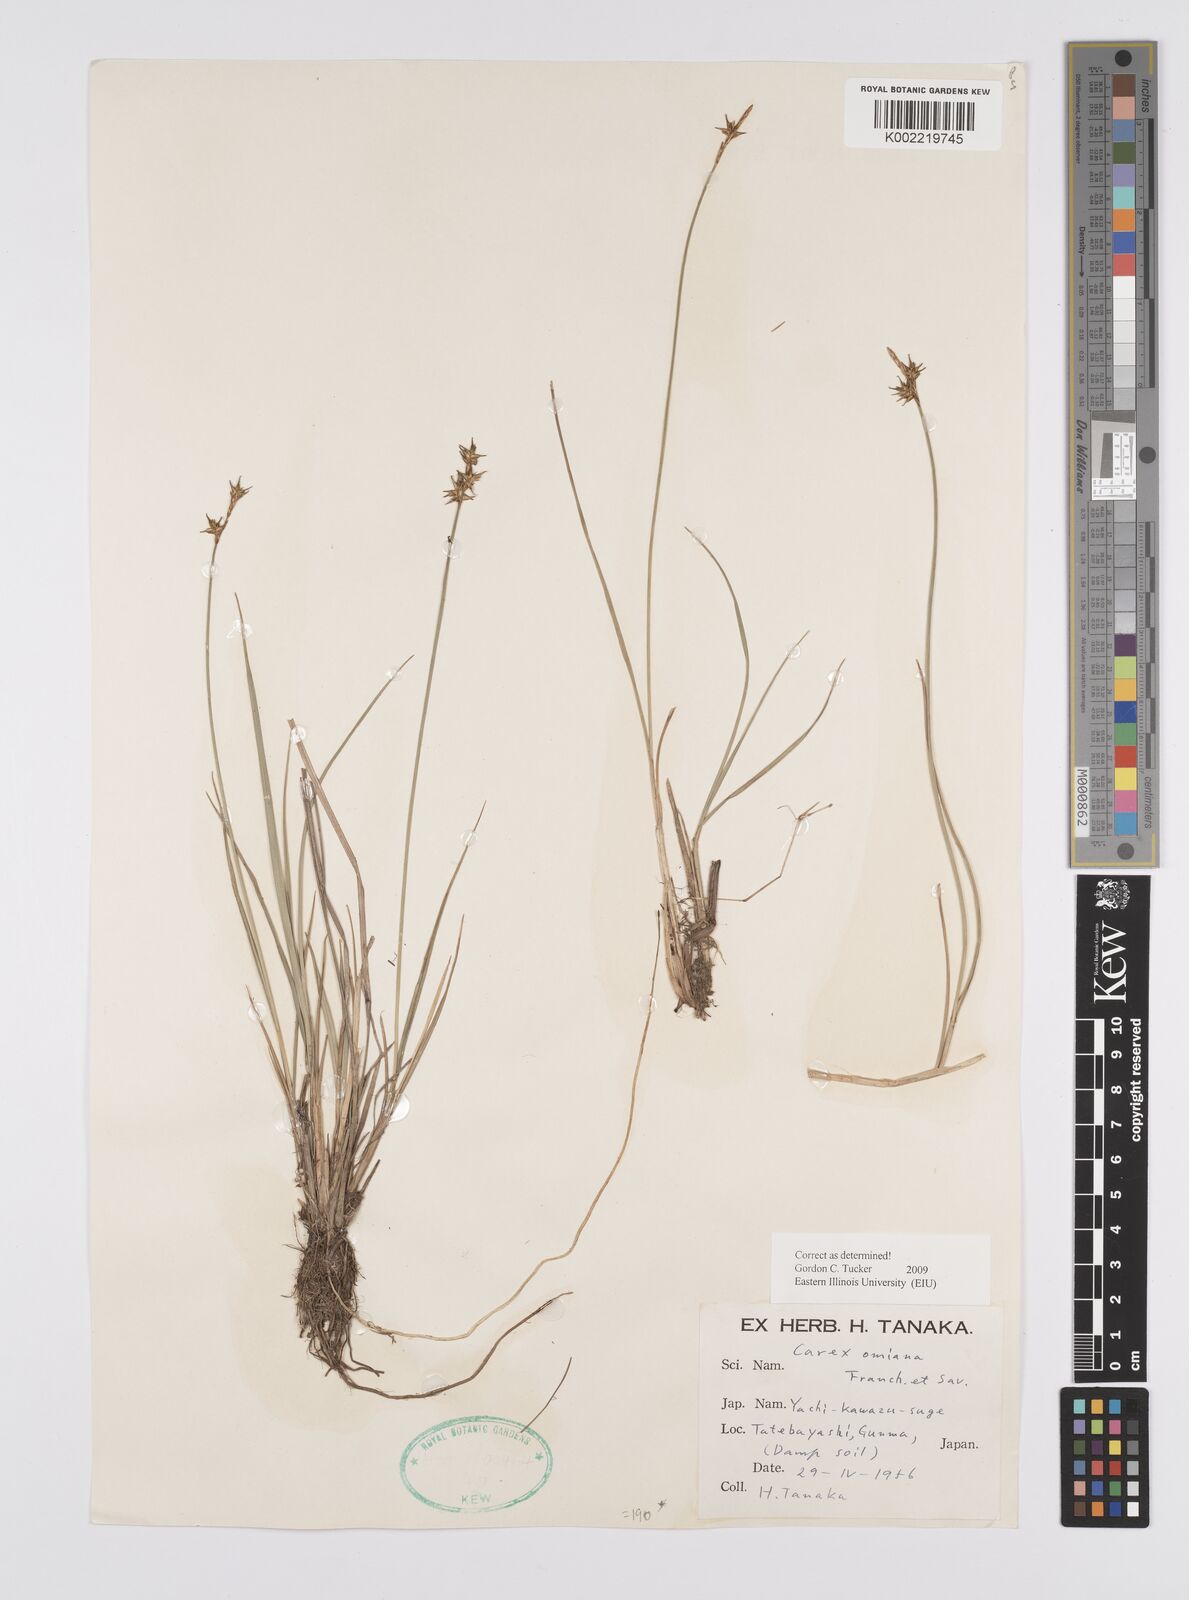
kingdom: Plantae
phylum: Tracheophyta
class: Liliopsida
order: Poales
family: Cyperaceae
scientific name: Cyperaceae
